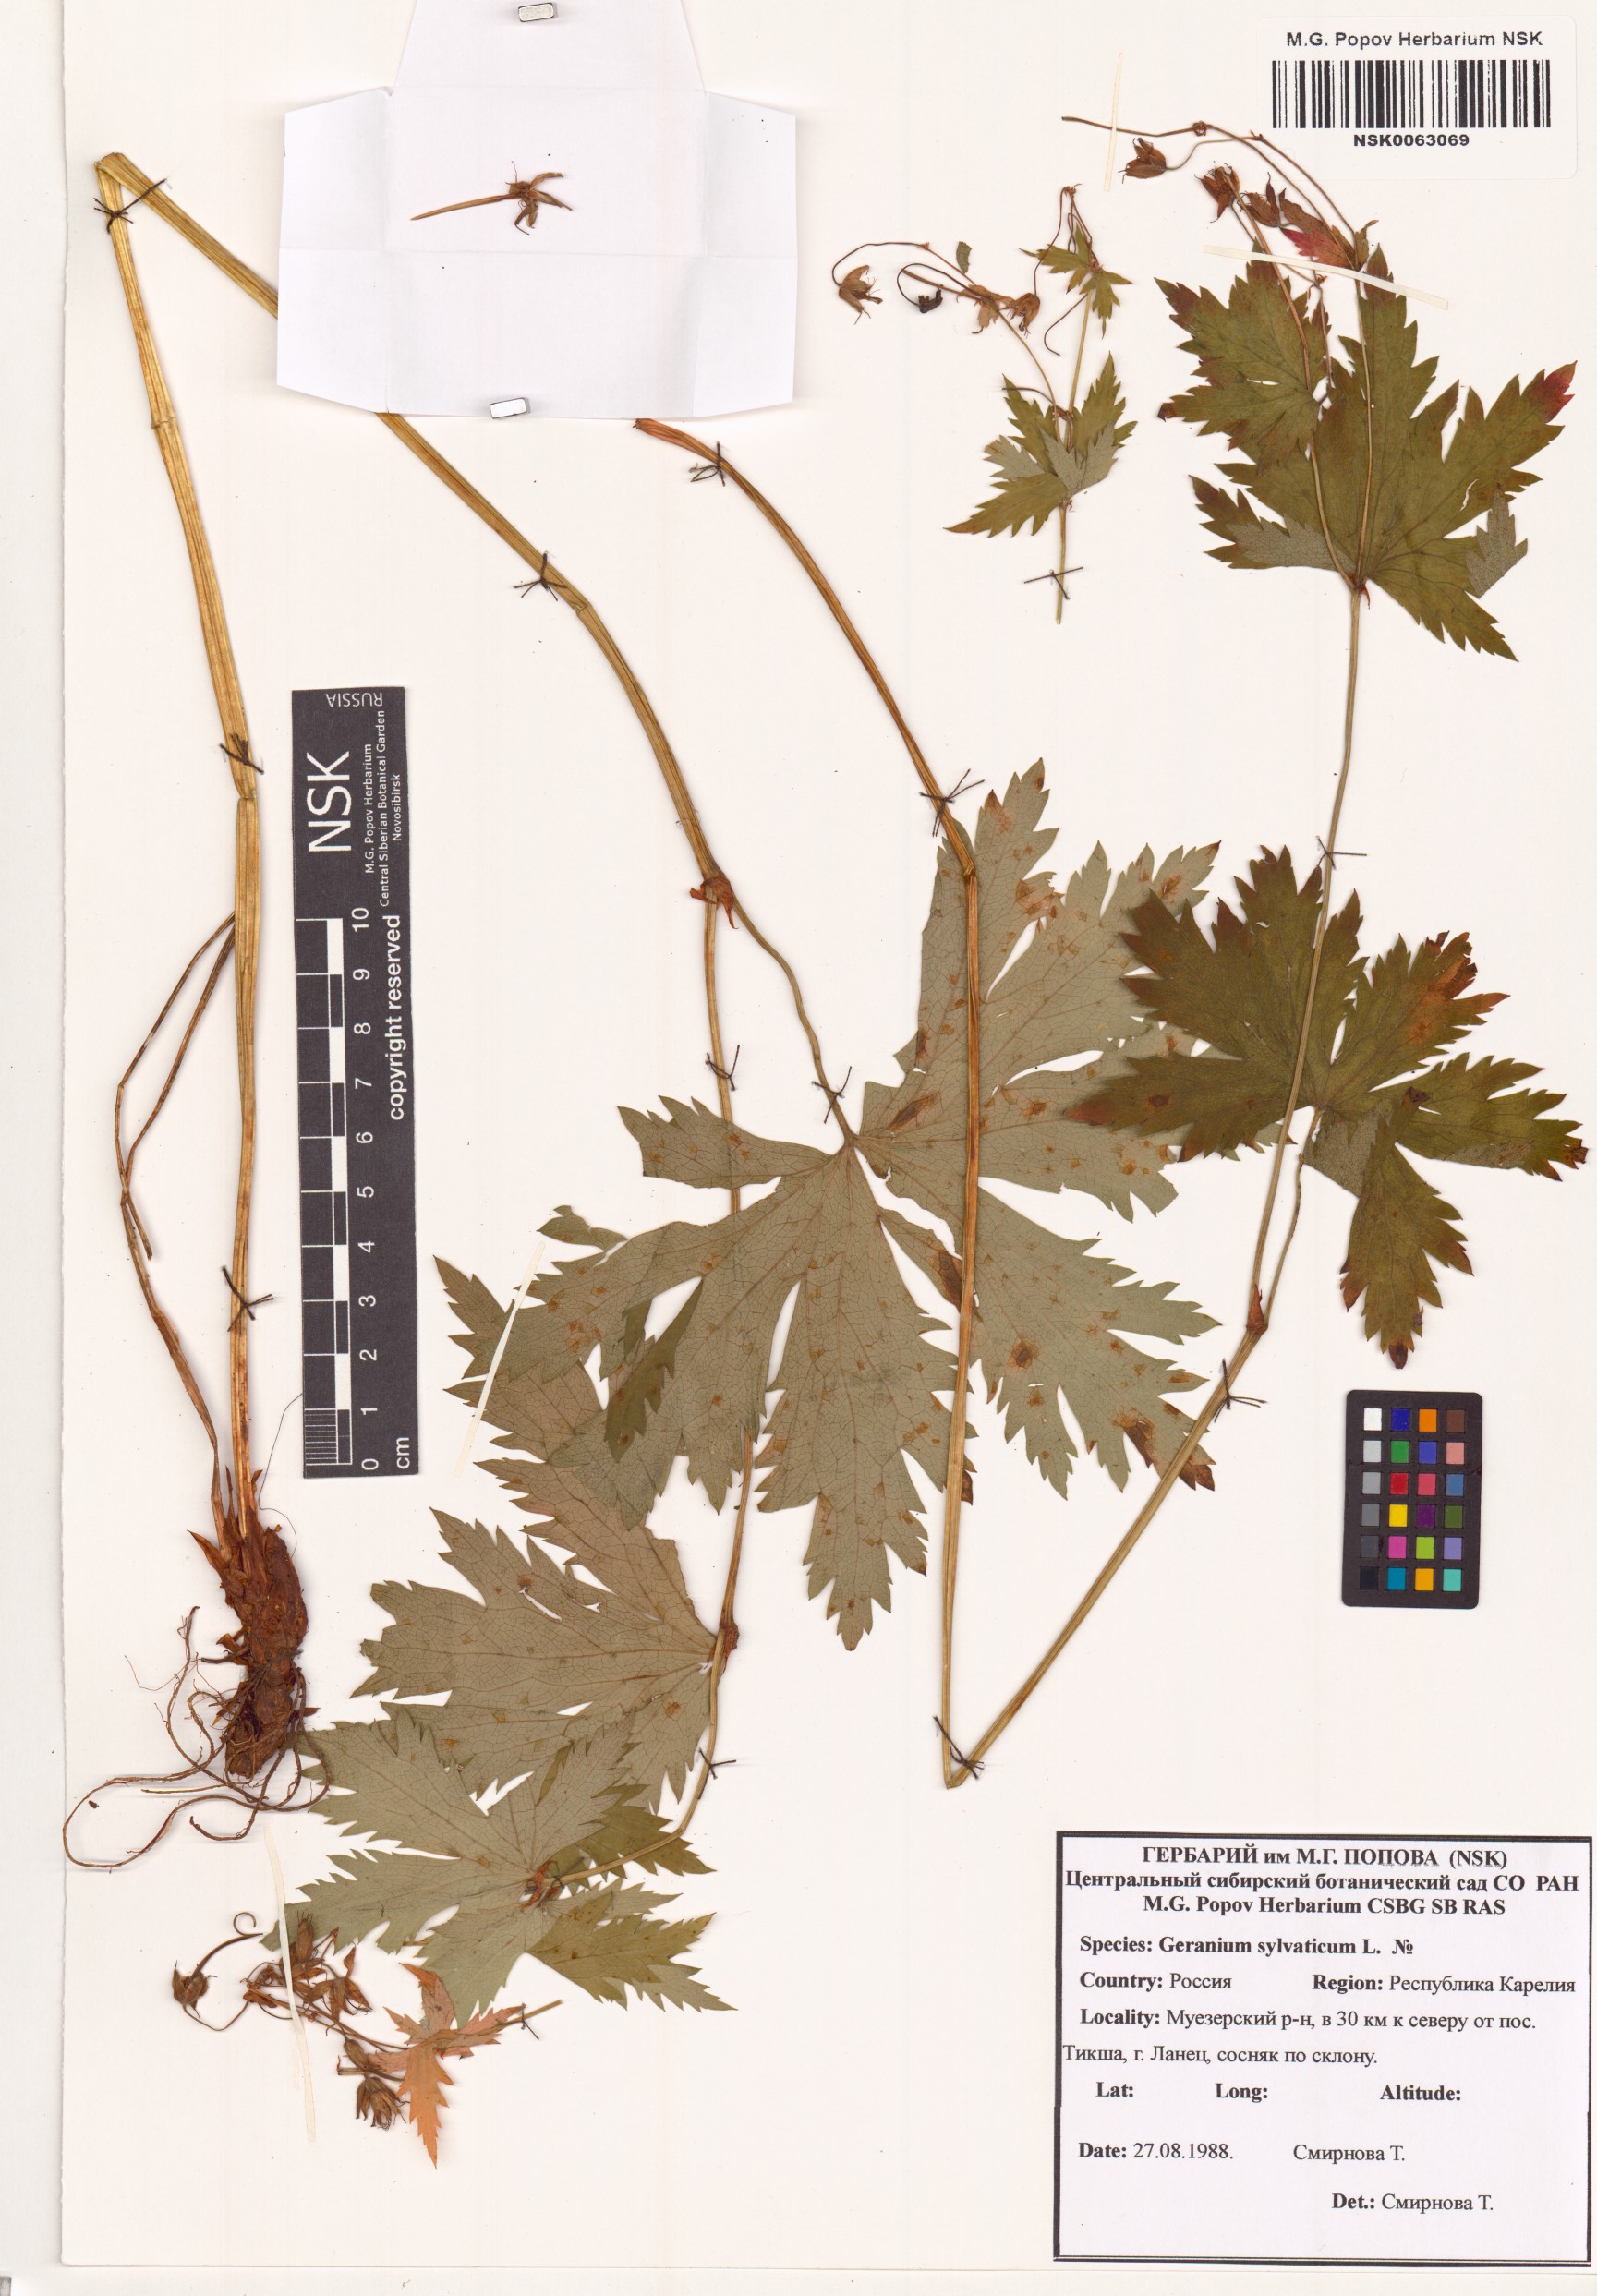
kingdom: Plantae
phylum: Tracheophyta
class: Magnoliopsida
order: Geraniales
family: Geraniaceae
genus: Geranium
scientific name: Geranium sylvaticum
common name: Wood crane's-bill
